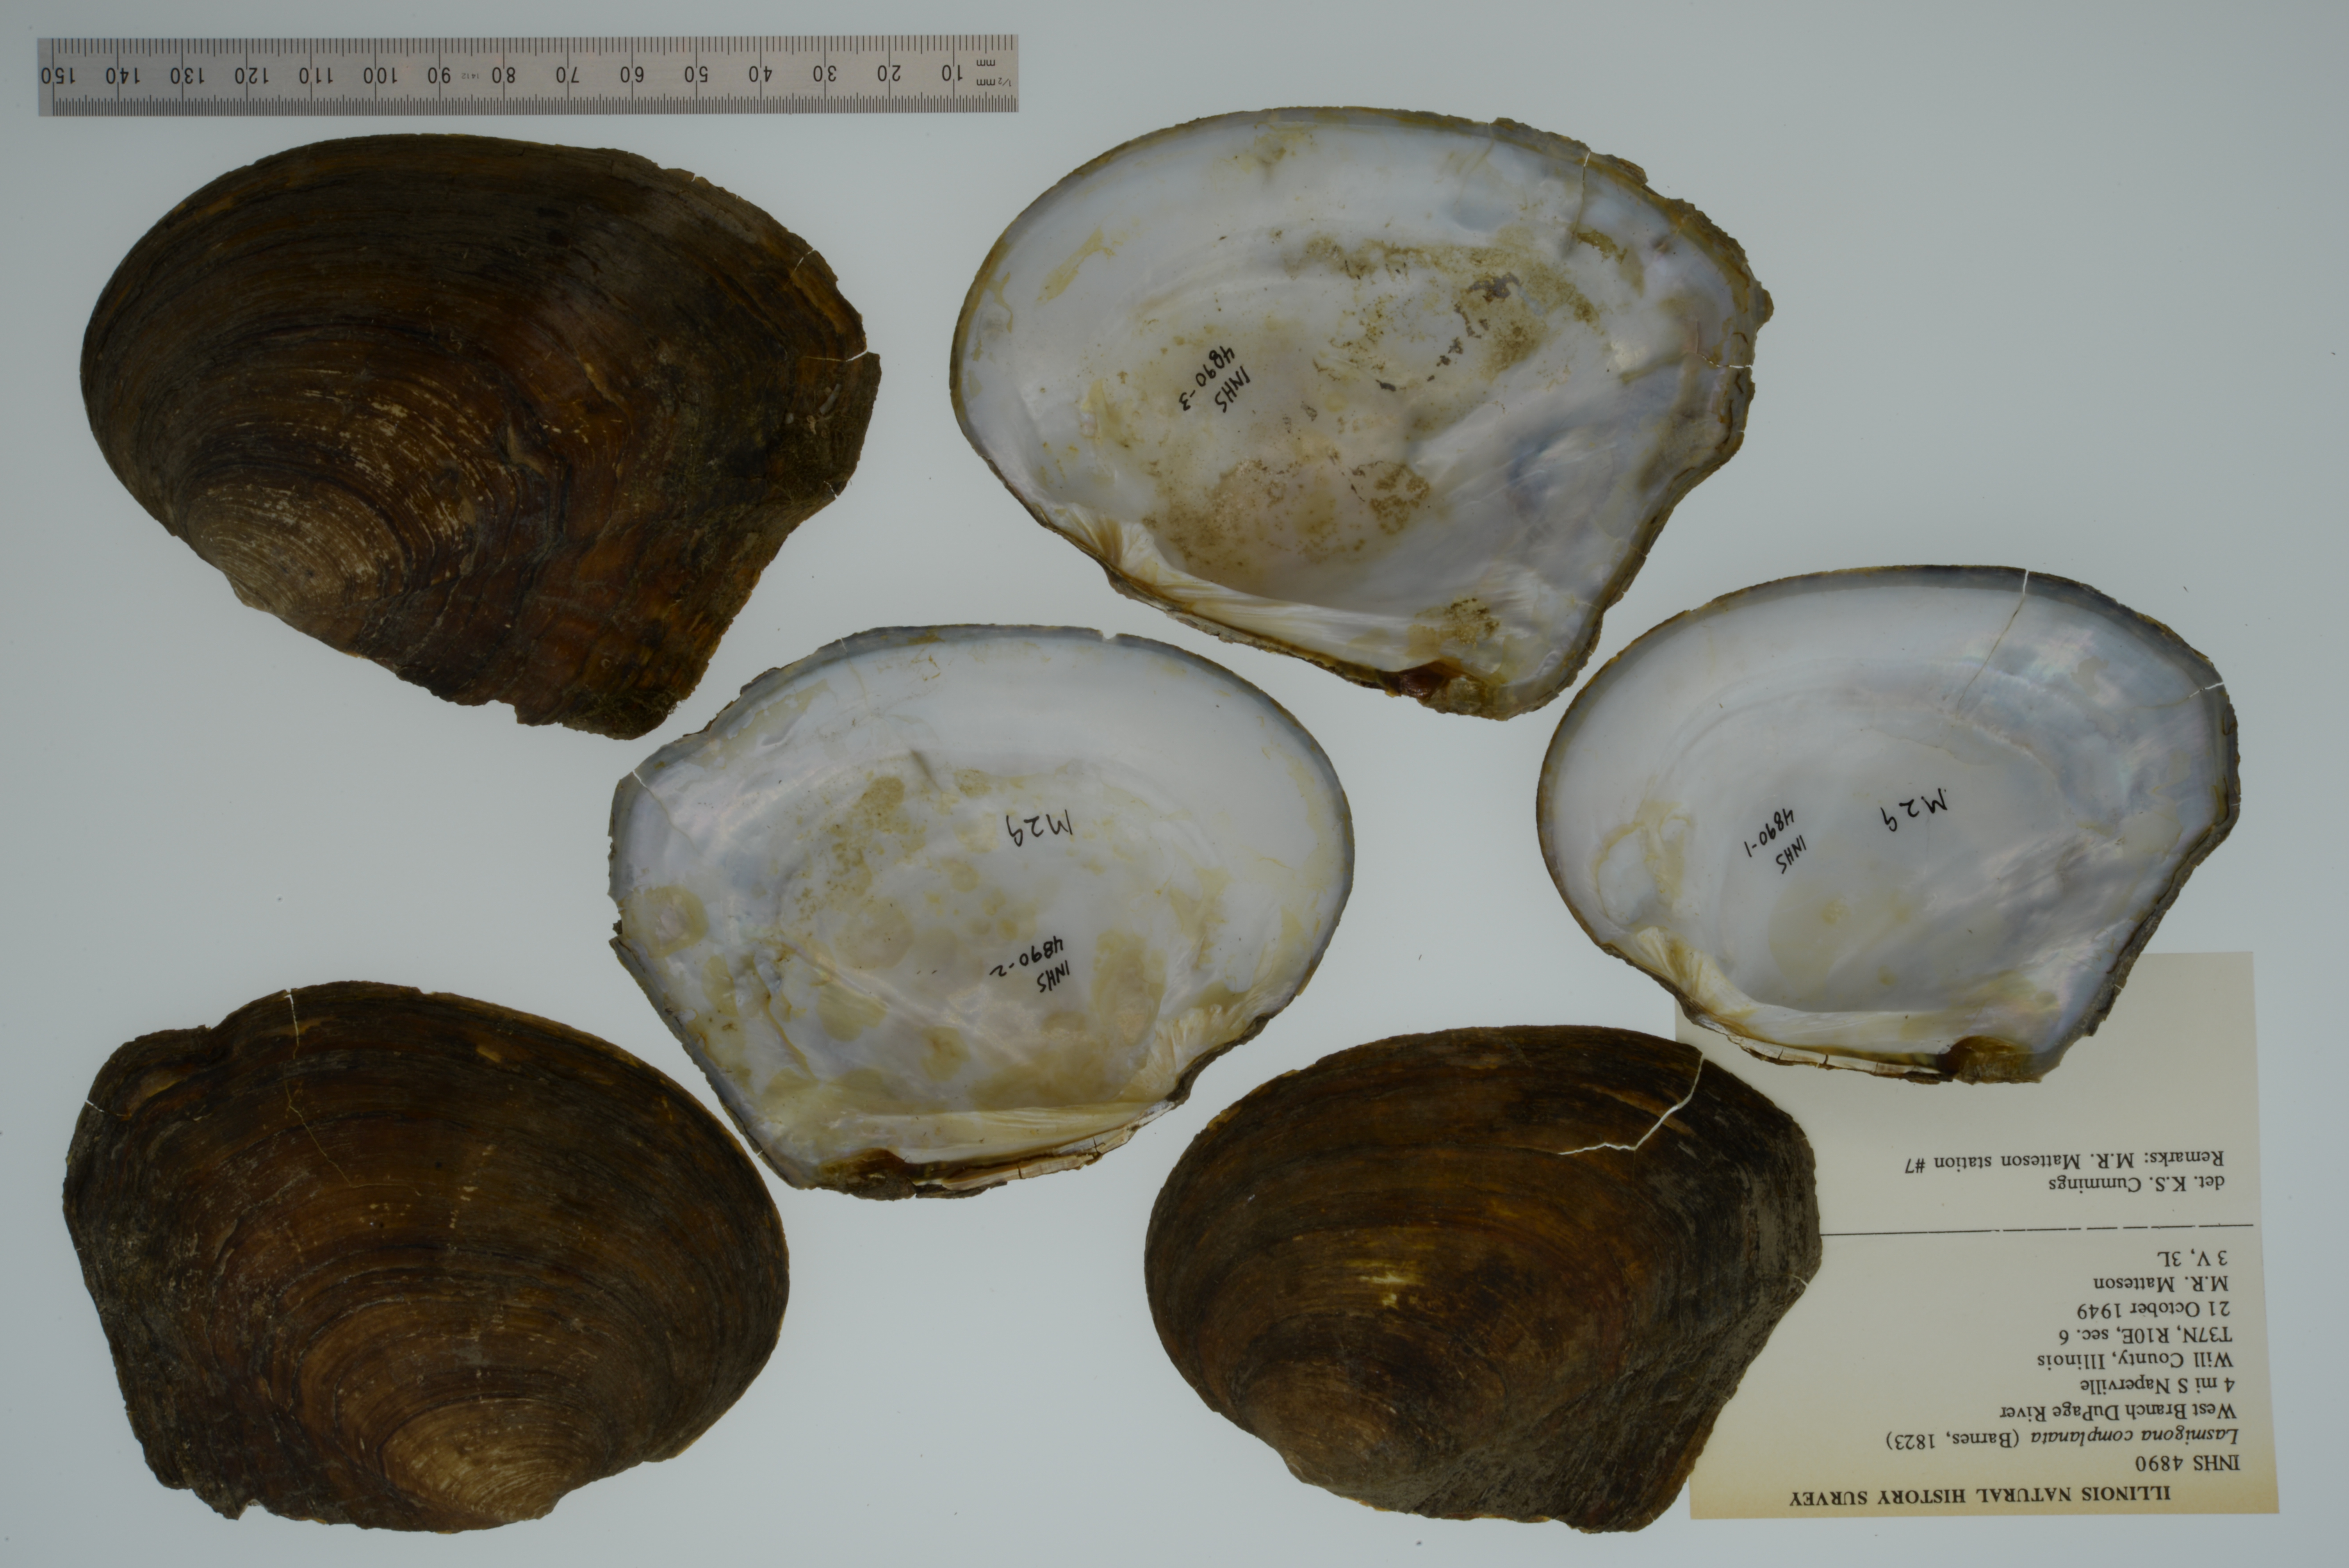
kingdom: Animalia
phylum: Mollusca
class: Bivalvia
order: Unionida
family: Unionidae
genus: Lasmigona
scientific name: Lasmigona complanata
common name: White heelsplitter
